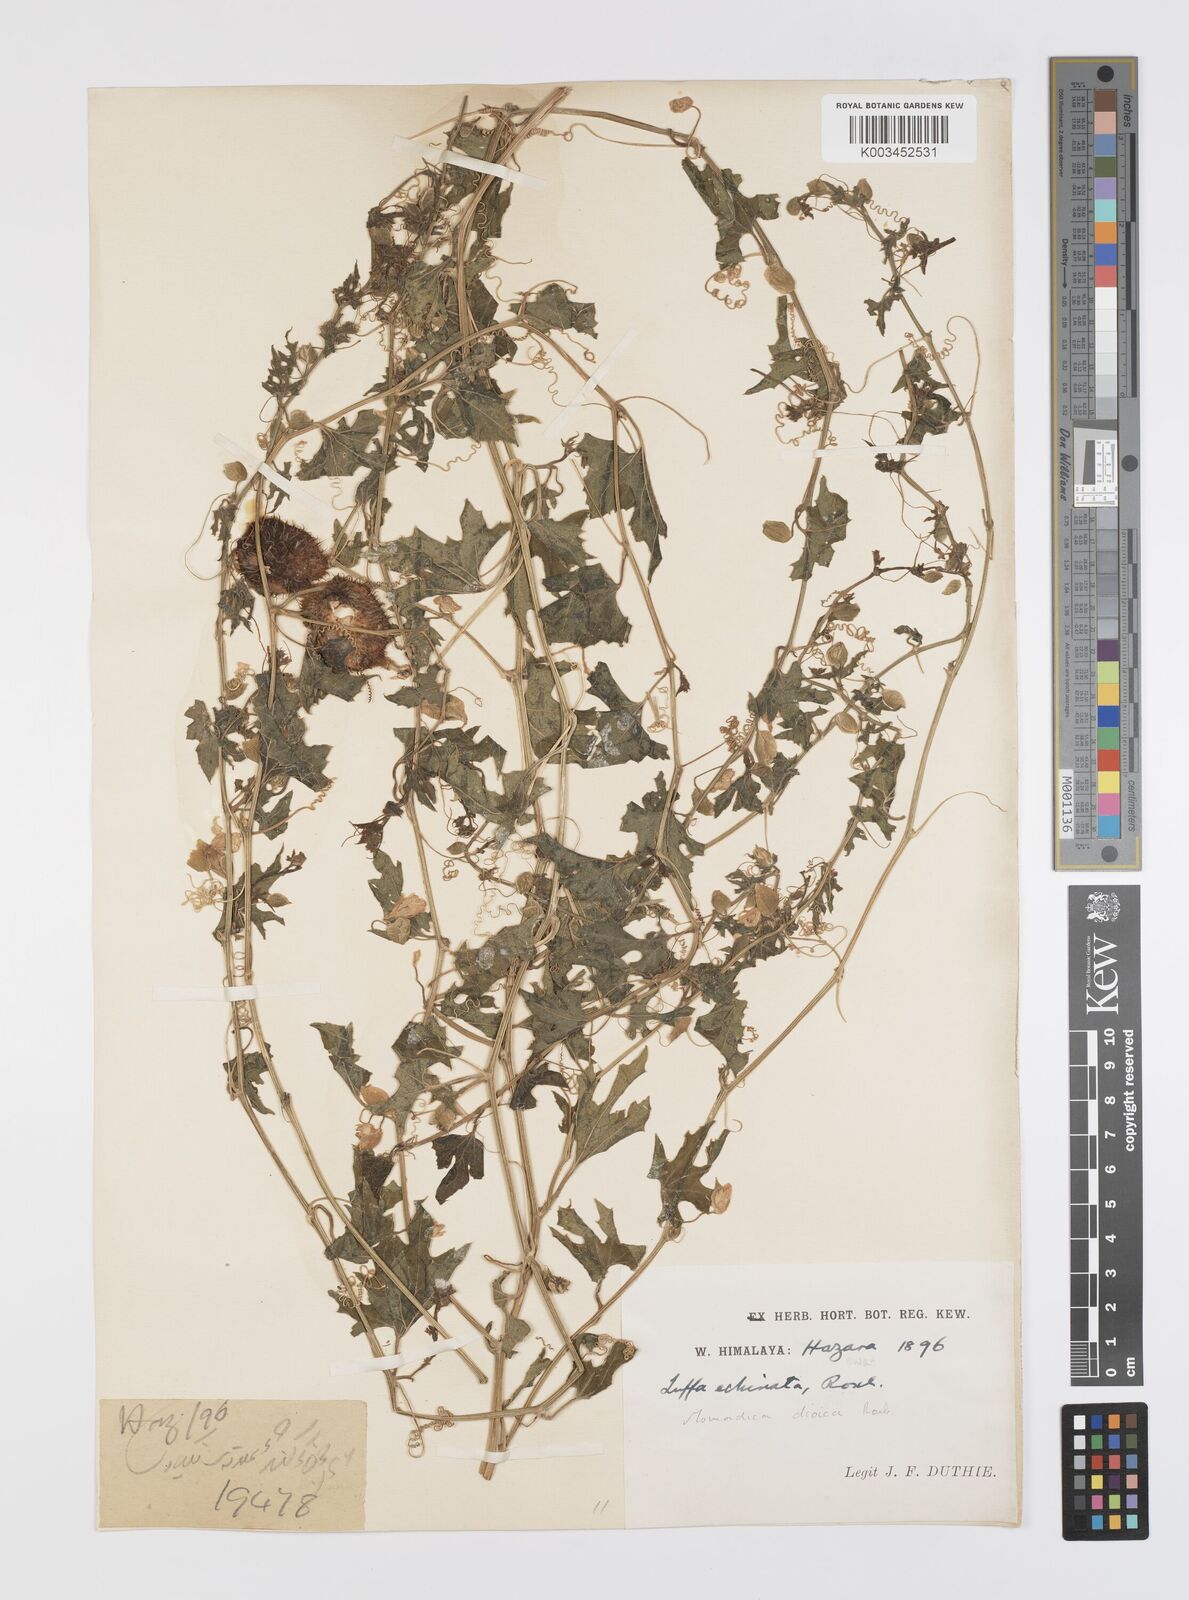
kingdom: Plantae
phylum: Tracheophyta
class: Magnoliopsida
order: Cucurbitales
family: Cucurbitaceae
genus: Momordica
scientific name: Momordica dioica
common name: Spine gourd
